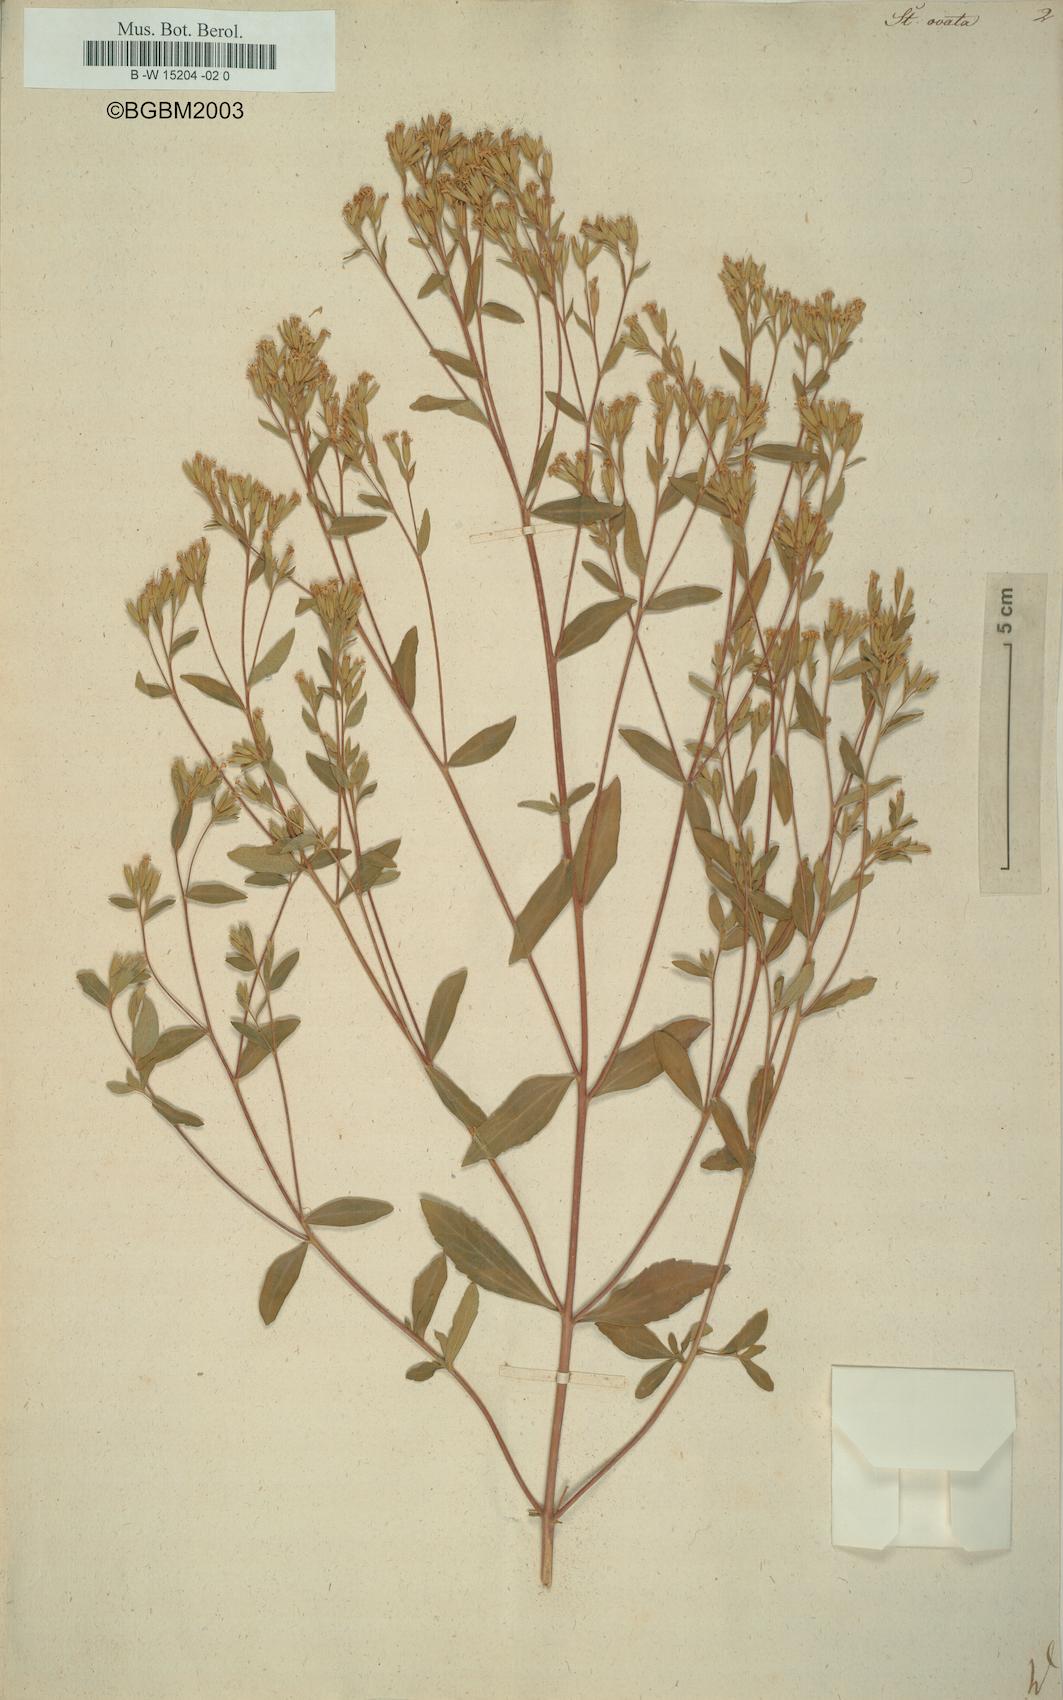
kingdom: Plantae
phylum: Tracheophyta
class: Magnoliopsida
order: Asterales
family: Asteraceae
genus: Stevia
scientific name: Stevia ovata
